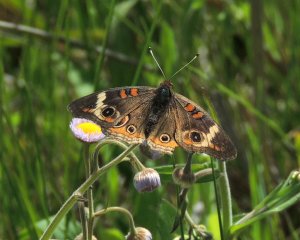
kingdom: Animalia
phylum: Arthropoda
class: Insecta
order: Lepidoptera
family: Nymphalidae
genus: Junonia
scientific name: Junonia coenia
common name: Common Buckeye
